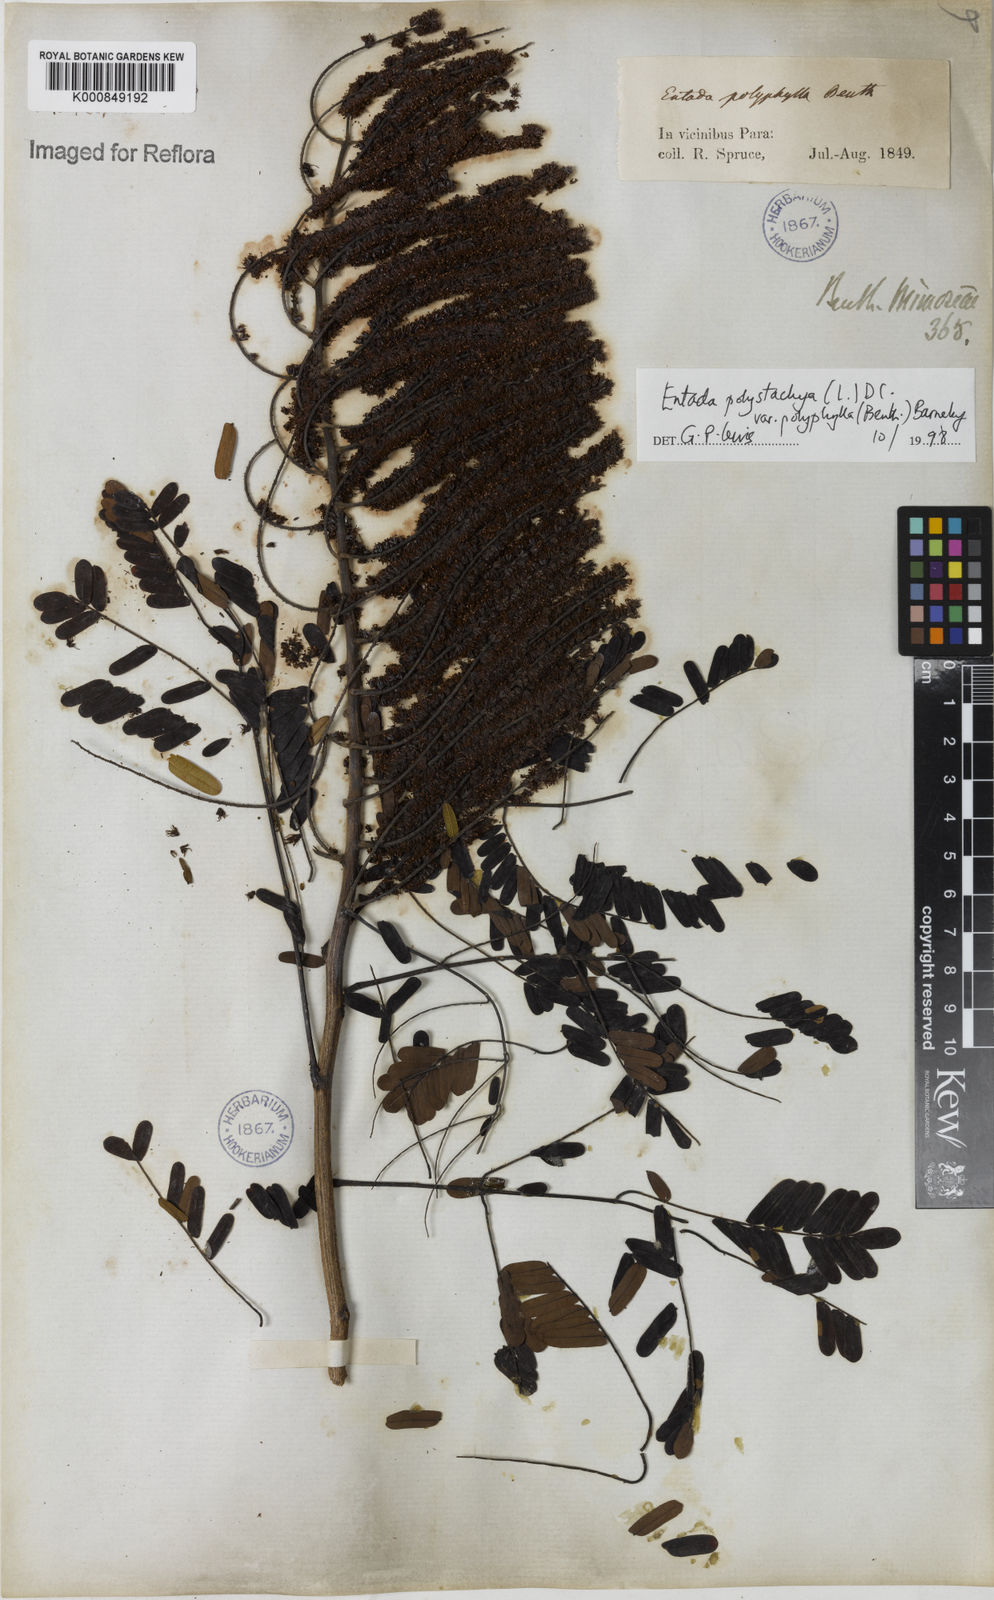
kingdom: Plantae
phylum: Tracheophyta
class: Magnoliopsida
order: Fabales
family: Fabaceae
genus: Entada
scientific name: Entada polyphylla
